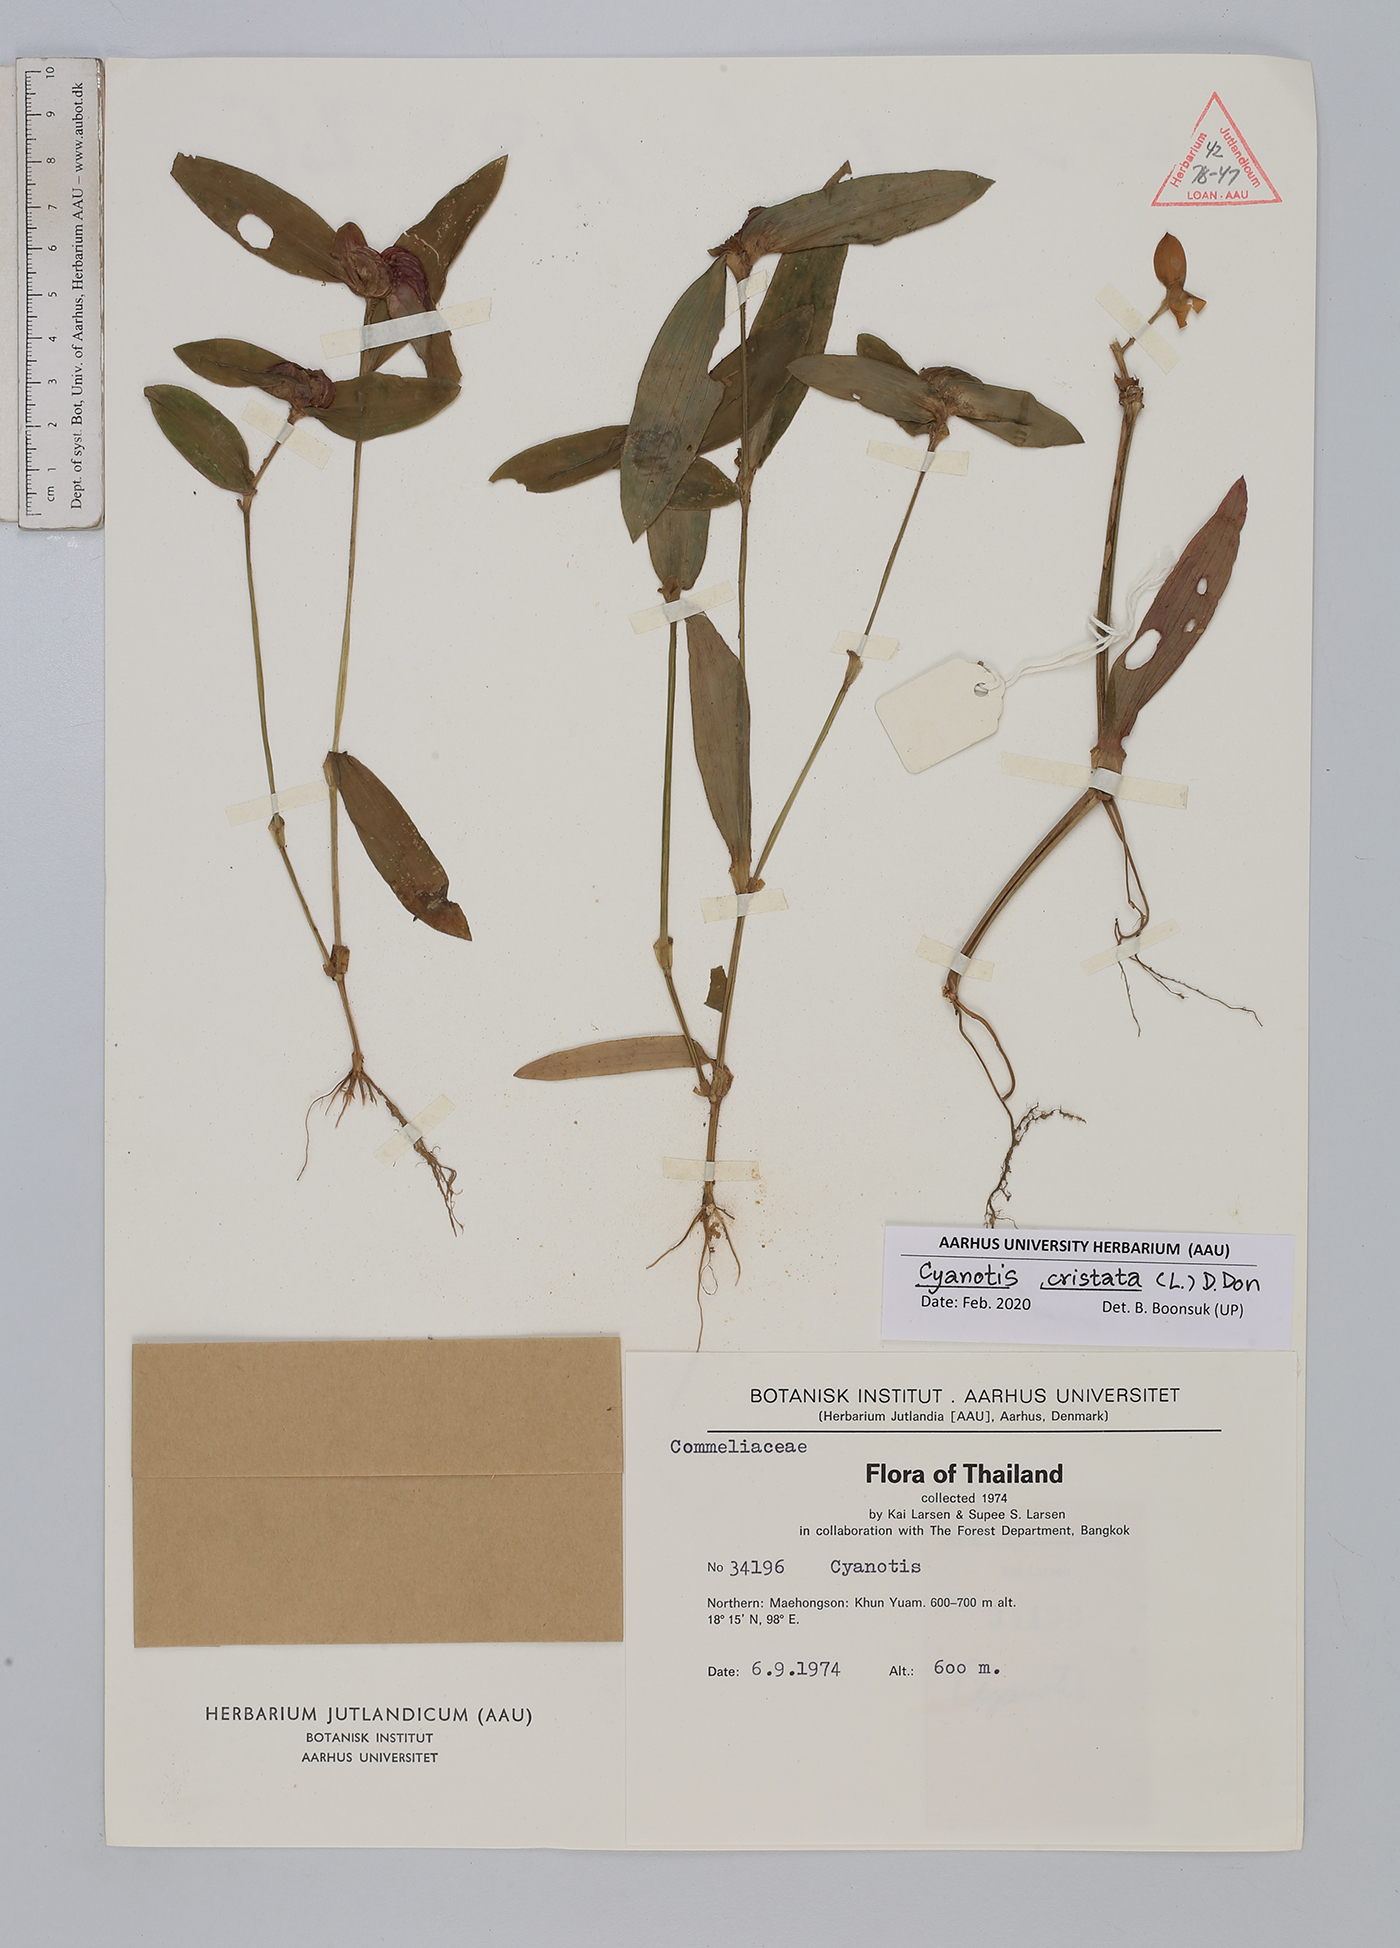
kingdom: Plantae
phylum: Tracheophyta
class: Liliopsida
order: Commelinales
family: Commelinaceae
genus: Cyanotis
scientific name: Cyanotis cristata
